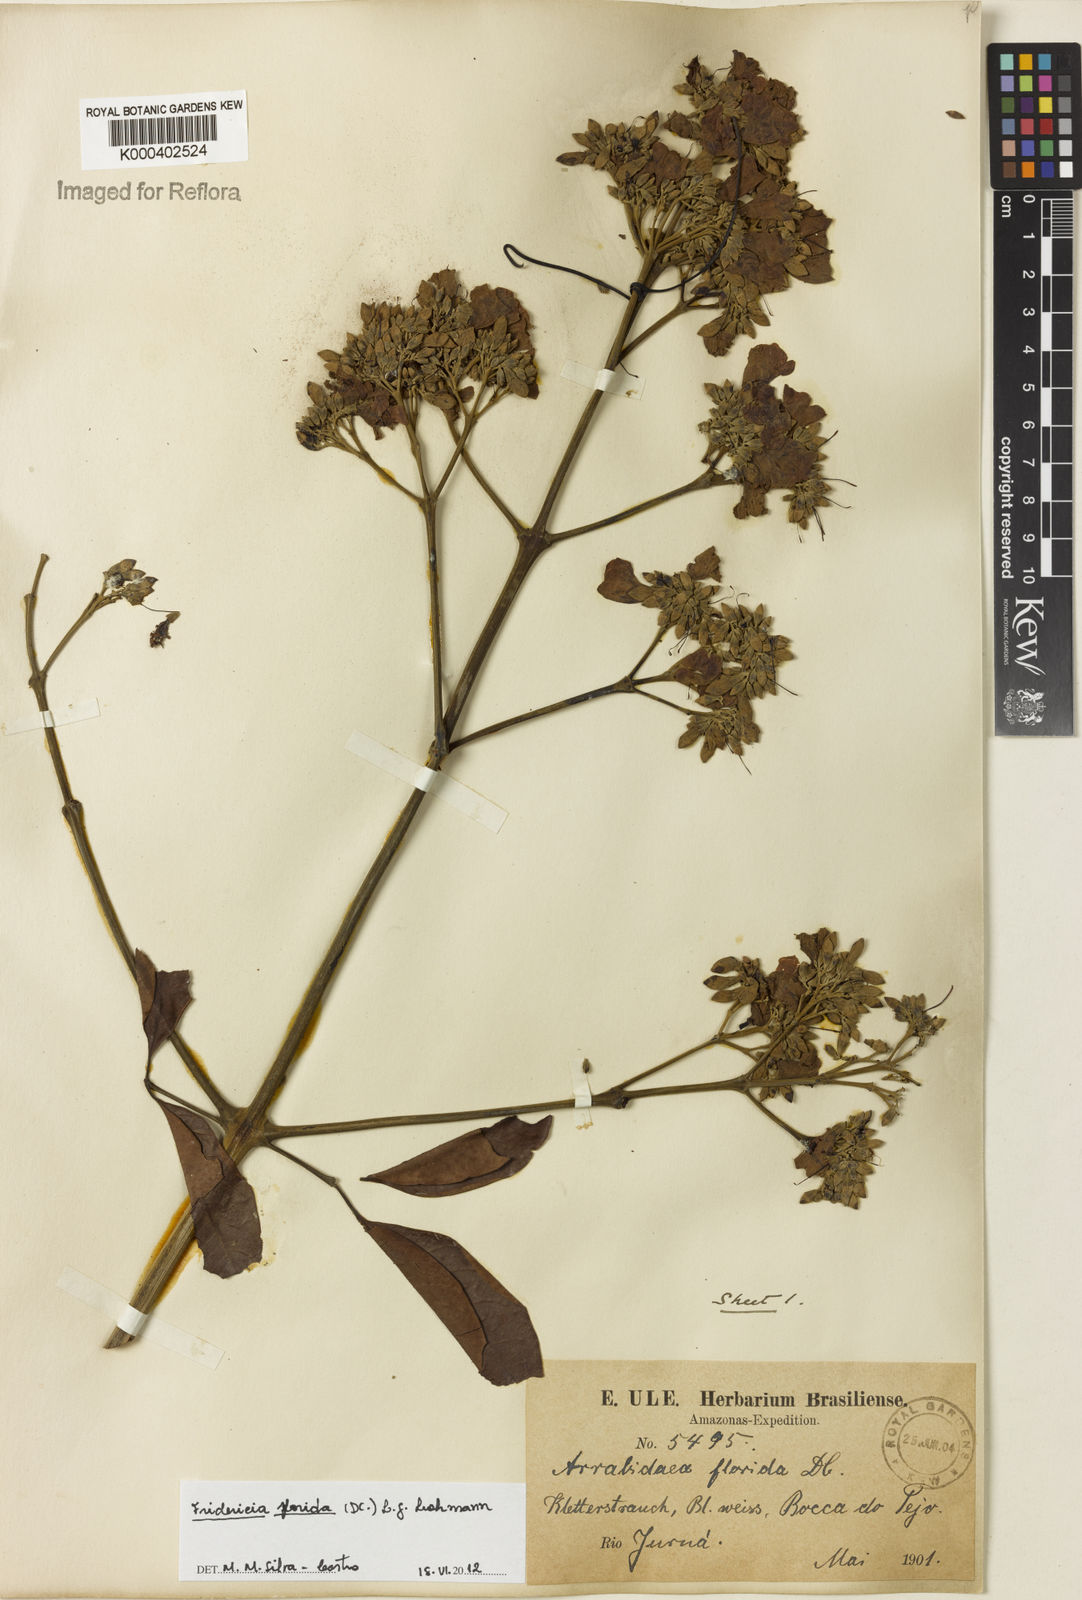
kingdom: Plantae
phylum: Tracheophyta
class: Magnoliopsida
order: Lamiales
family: Bignoniaceae
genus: Fridericia
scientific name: Fridericia florida
